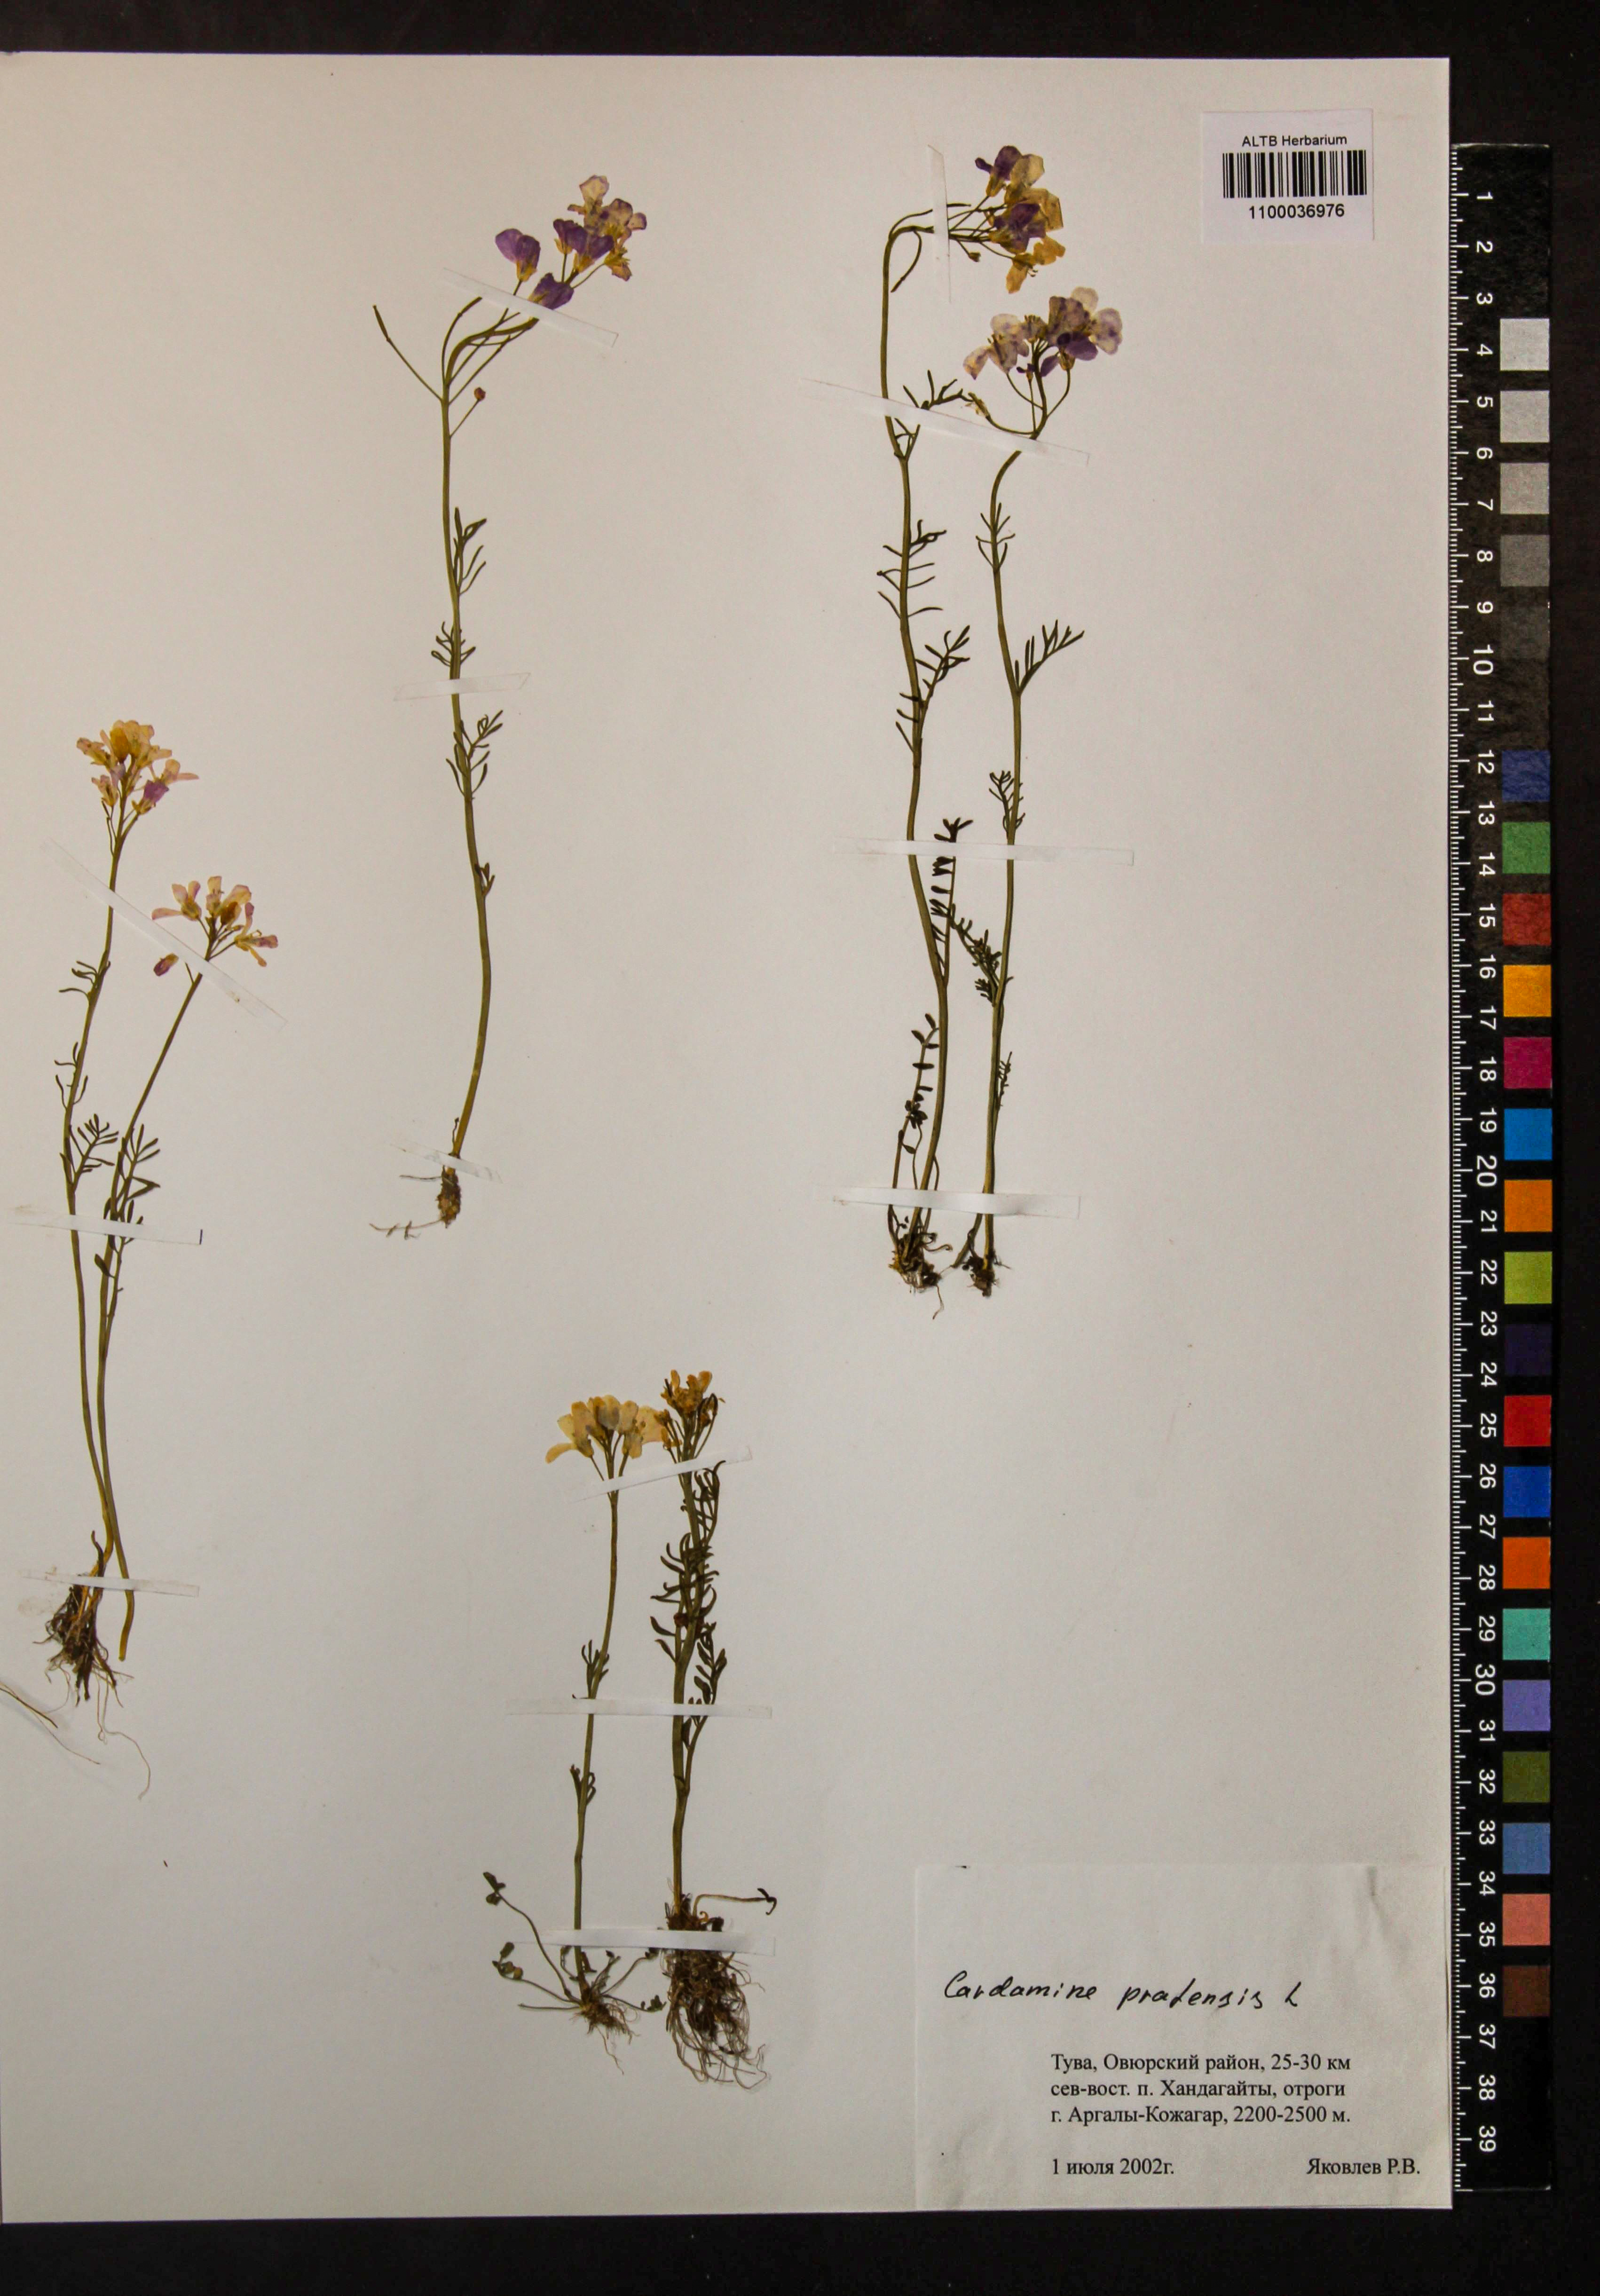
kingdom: Plantae
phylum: Tracheophyta
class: Magnoliopsida
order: Brassicales
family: Brassicaceae
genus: Cardamine
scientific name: Cardamine pratensis
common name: Cuckoo flower
